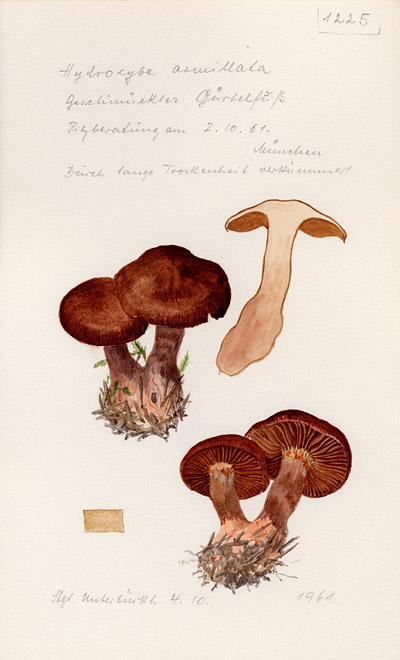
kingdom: Fungi
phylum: Basidiomycota
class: Agaricomycetes
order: Agaricales
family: Cortinariaceae
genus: Cortinarius
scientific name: Cortinarius armillatus
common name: Red banded webcap
